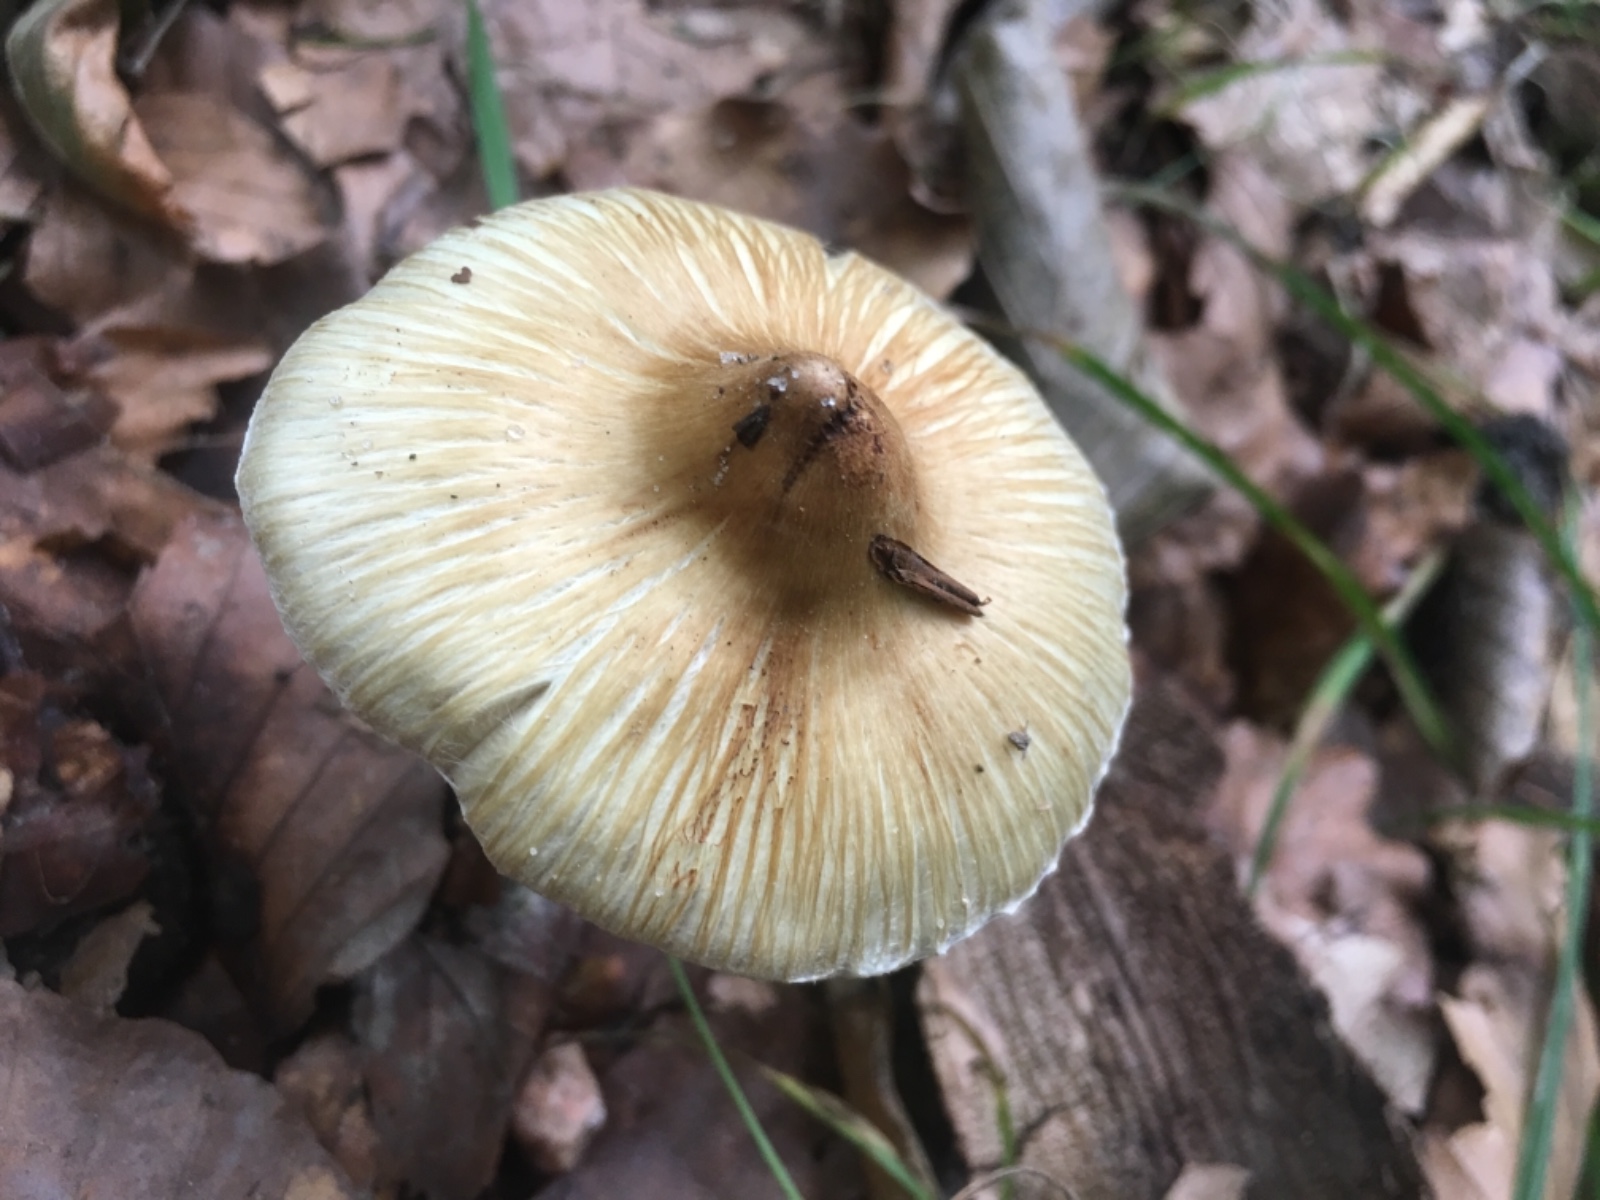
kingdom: Fungi
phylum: Basidiomycota
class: Agaricomycetes
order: Agaricales
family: Inocybaceae
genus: Pseudosperma
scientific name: Pseudosperma
